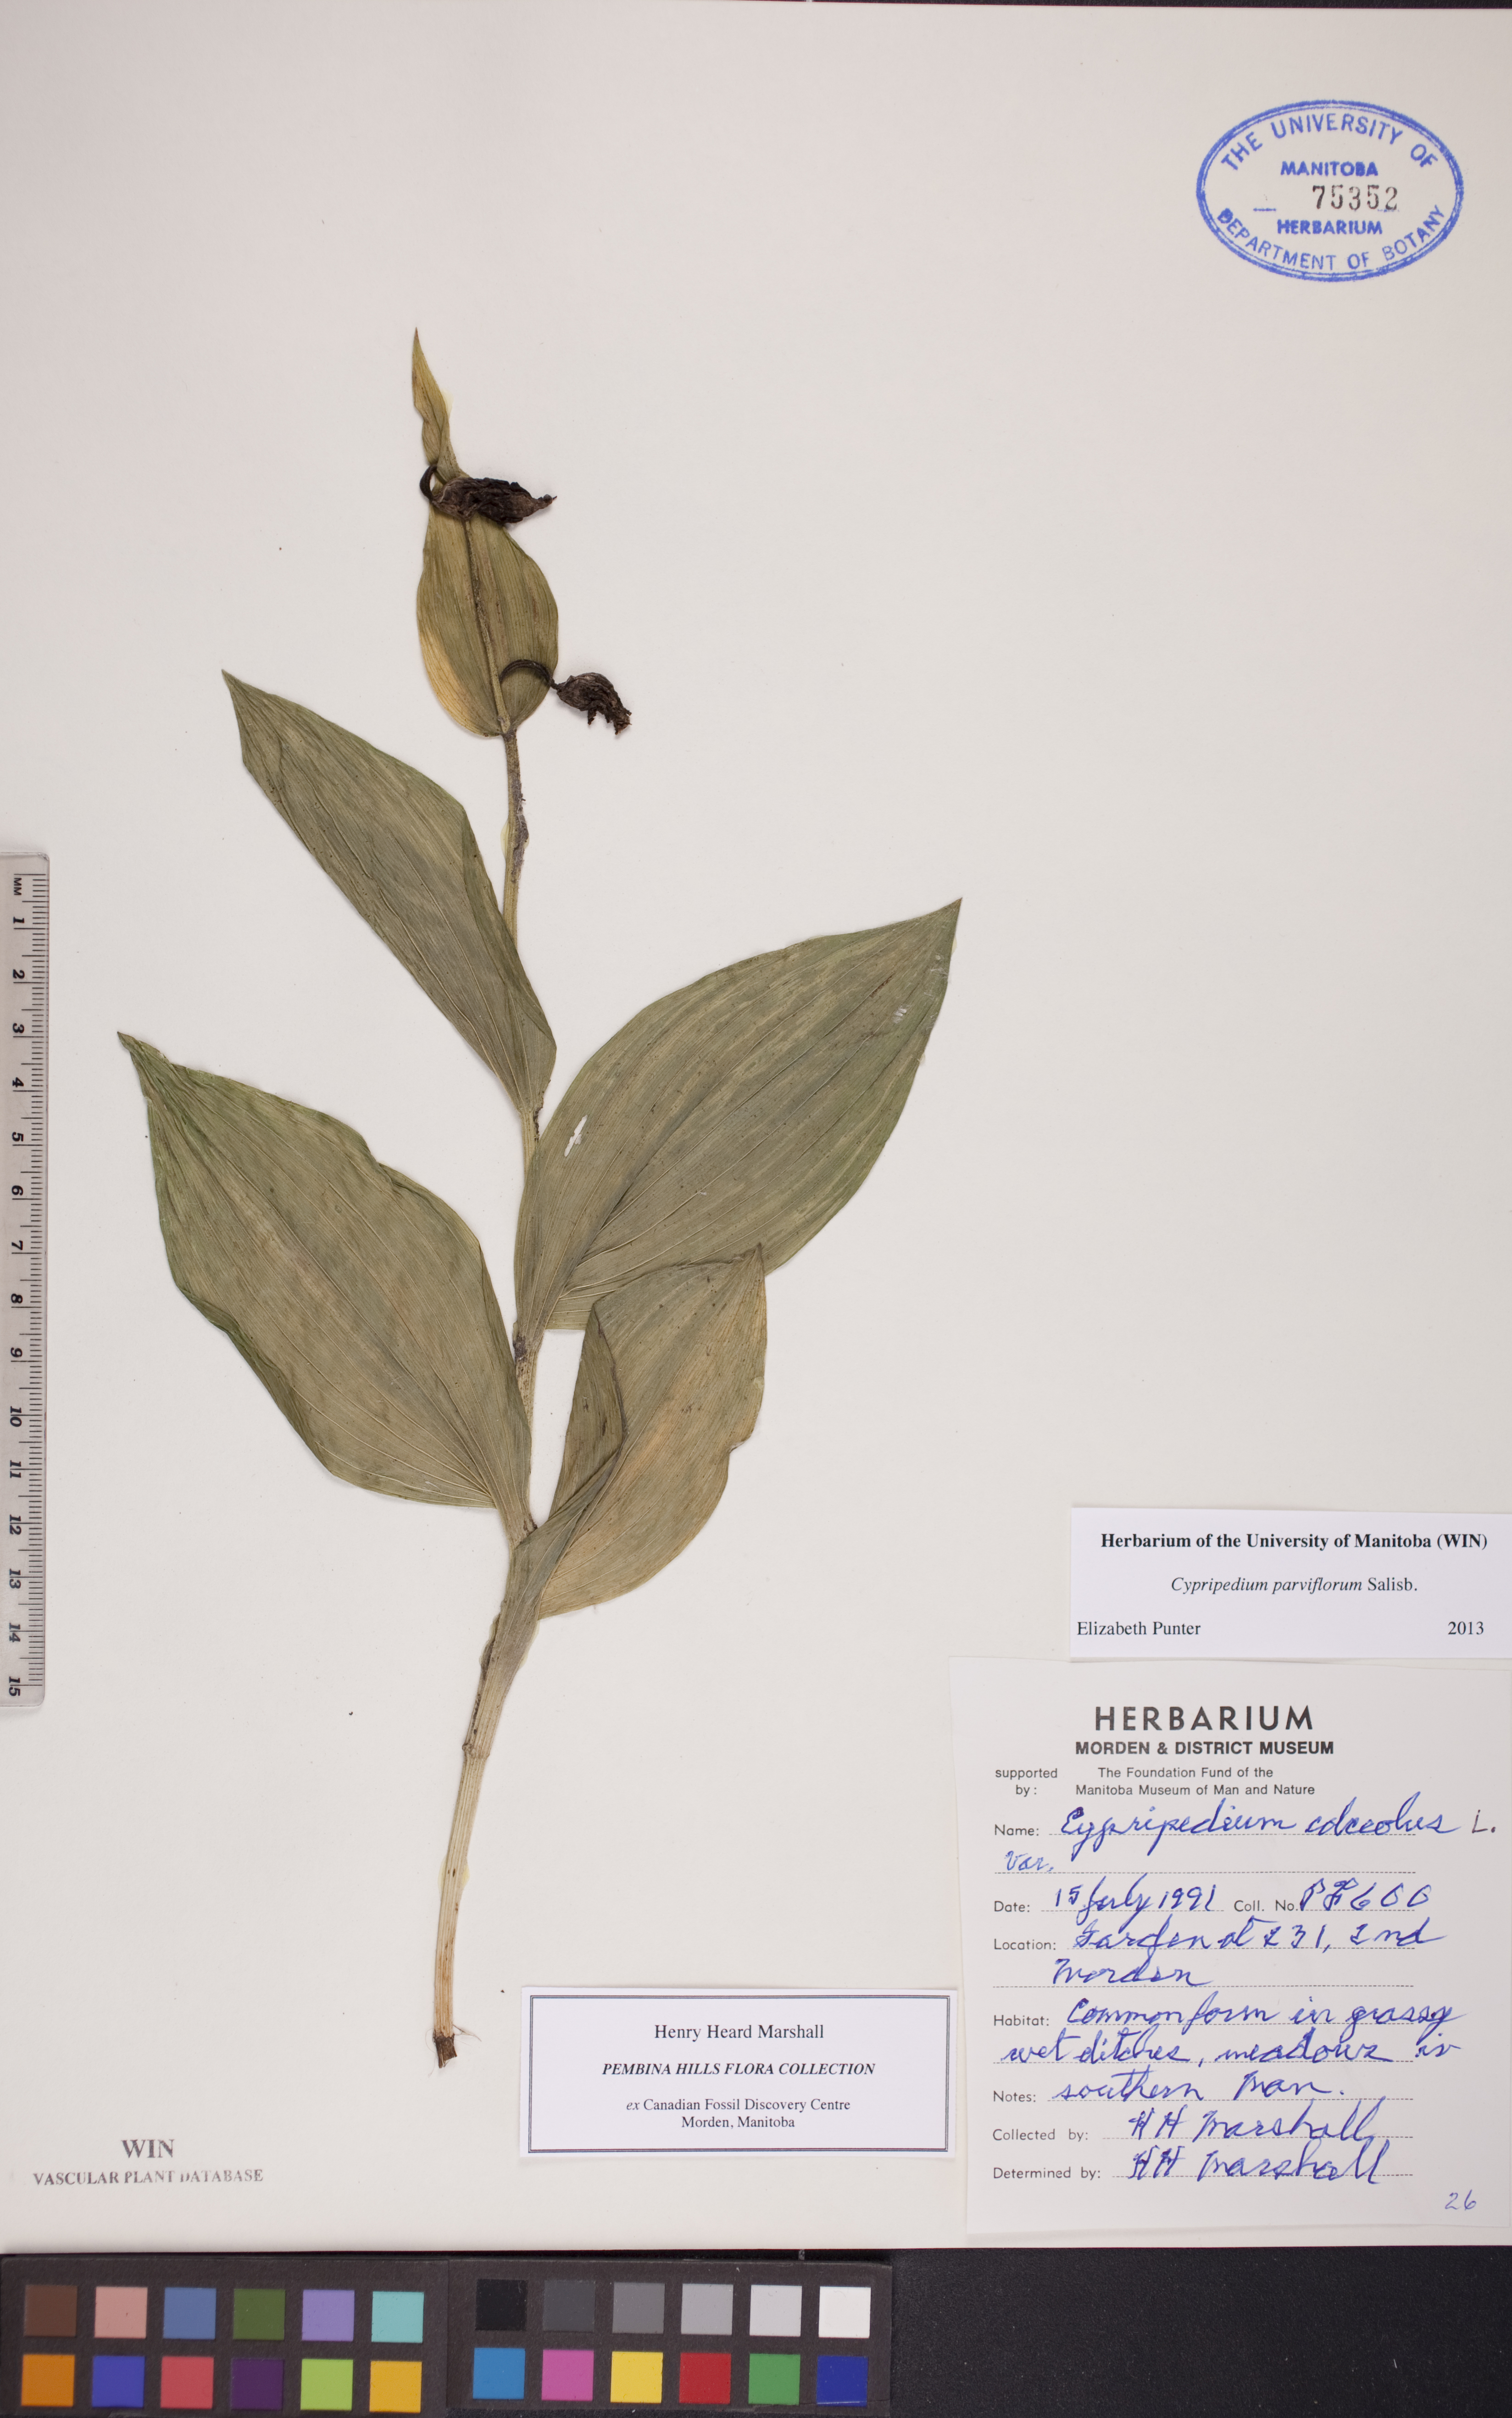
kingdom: Plantae
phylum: Tracheophyta
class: Liliopsida
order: Asparagales
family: Orchidaceae
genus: Cypripedium
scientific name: Cypripedium parviflorum
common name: American yellow lady's-slipper
